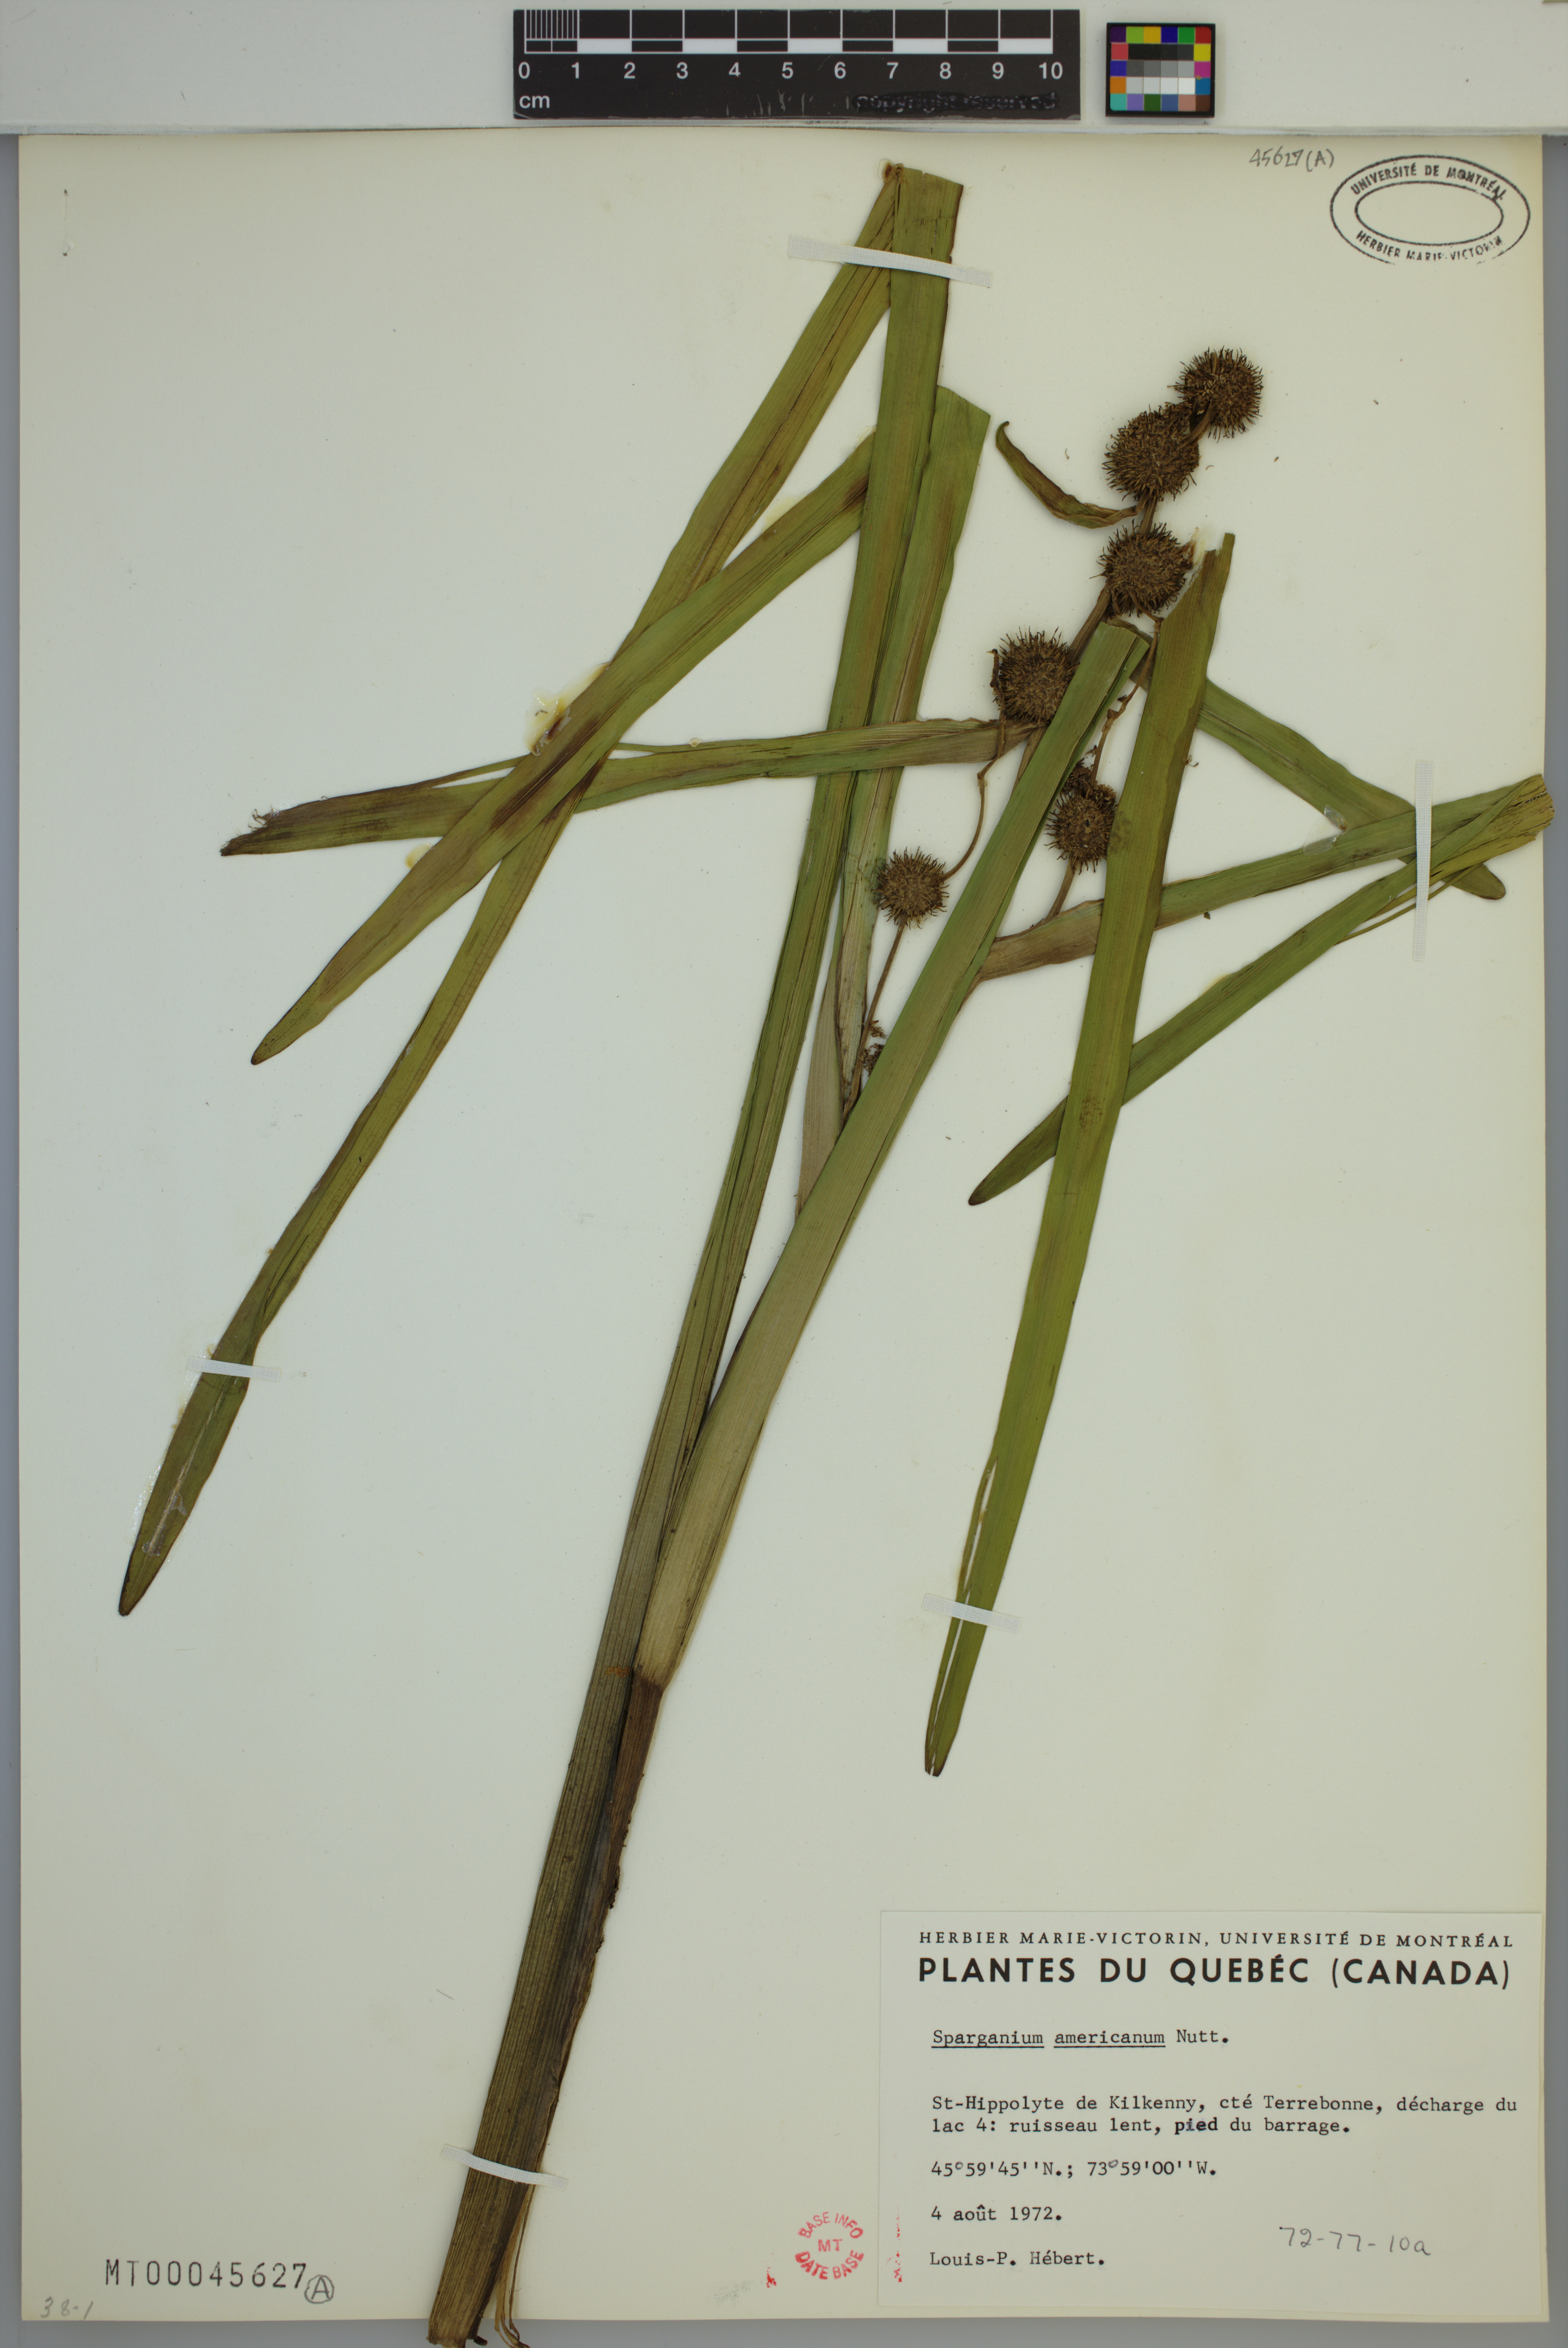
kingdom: Plantae
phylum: Tracheophyta
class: Liliopsida
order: Poales
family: Typhaceae
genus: Sparganium
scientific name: Sparganium americanum
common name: American burreed
